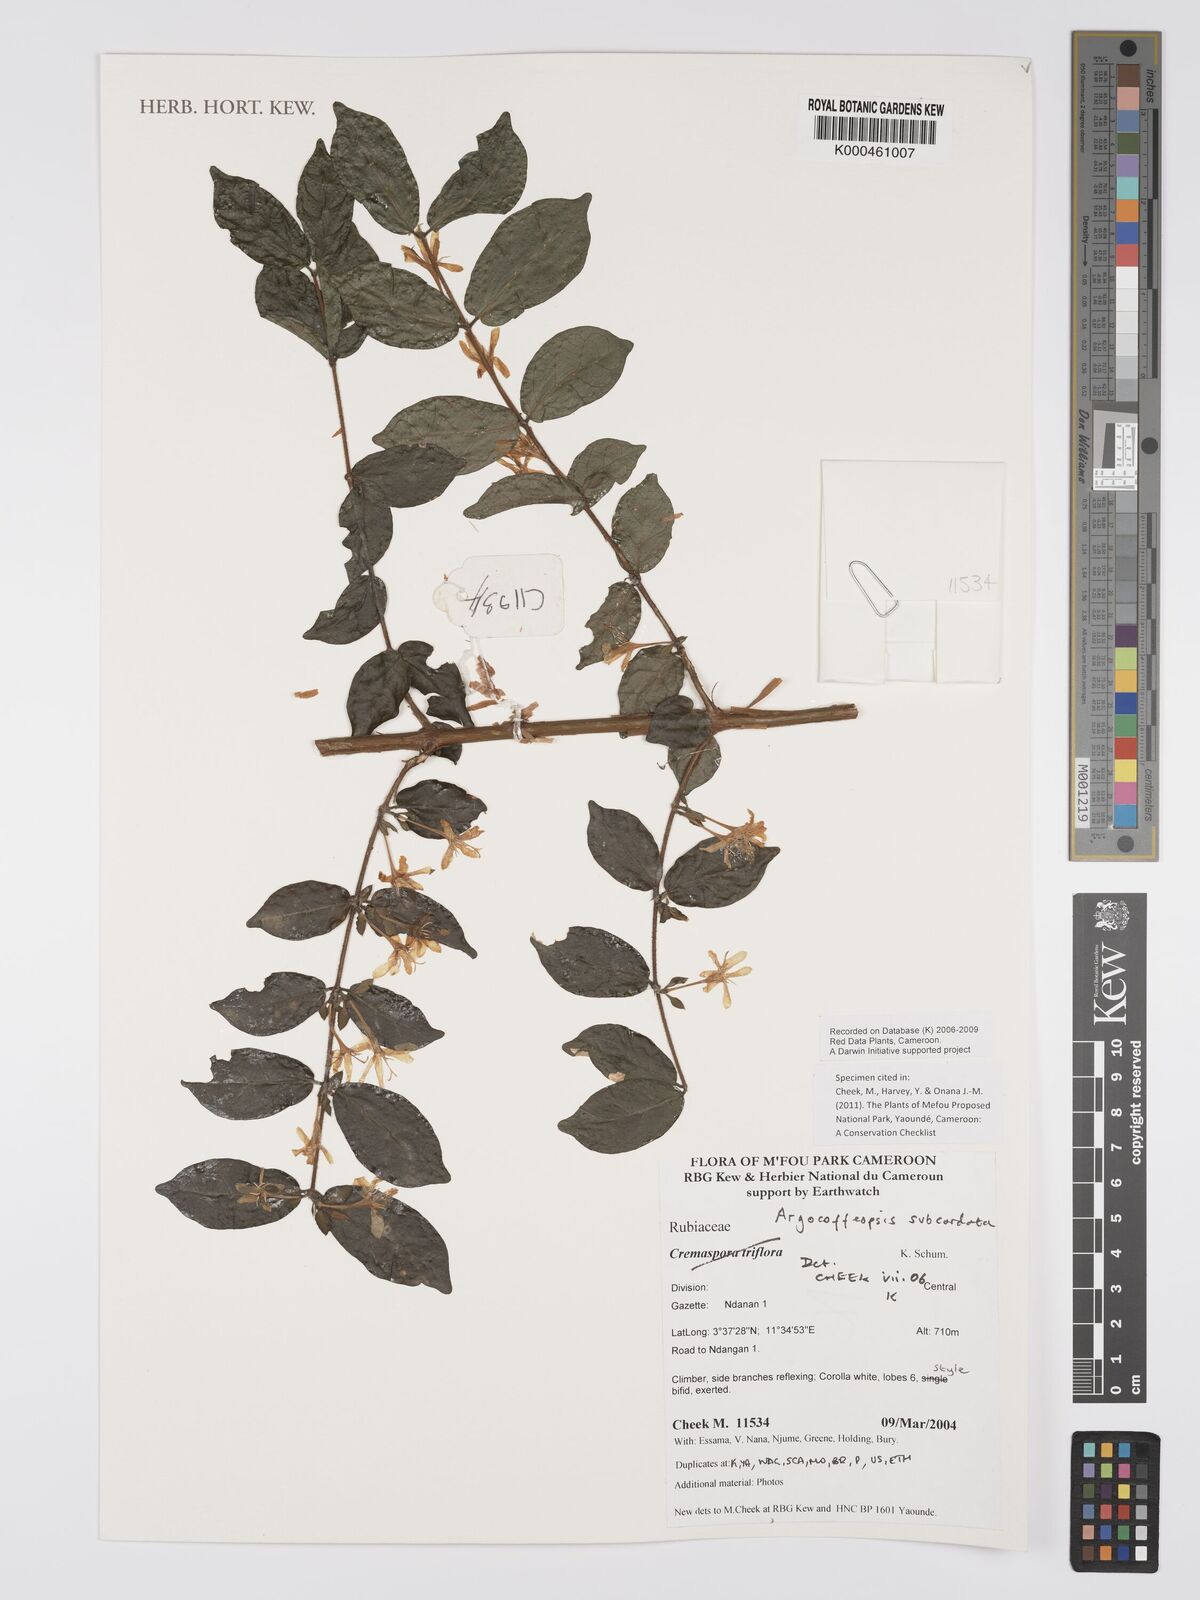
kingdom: Plantae
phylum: Tracheophyta
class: Magnoliopsida
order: Gentianales
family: Rubiaceae
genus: Argocoffeopsis
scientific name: Argocoffeopsis subcordata
